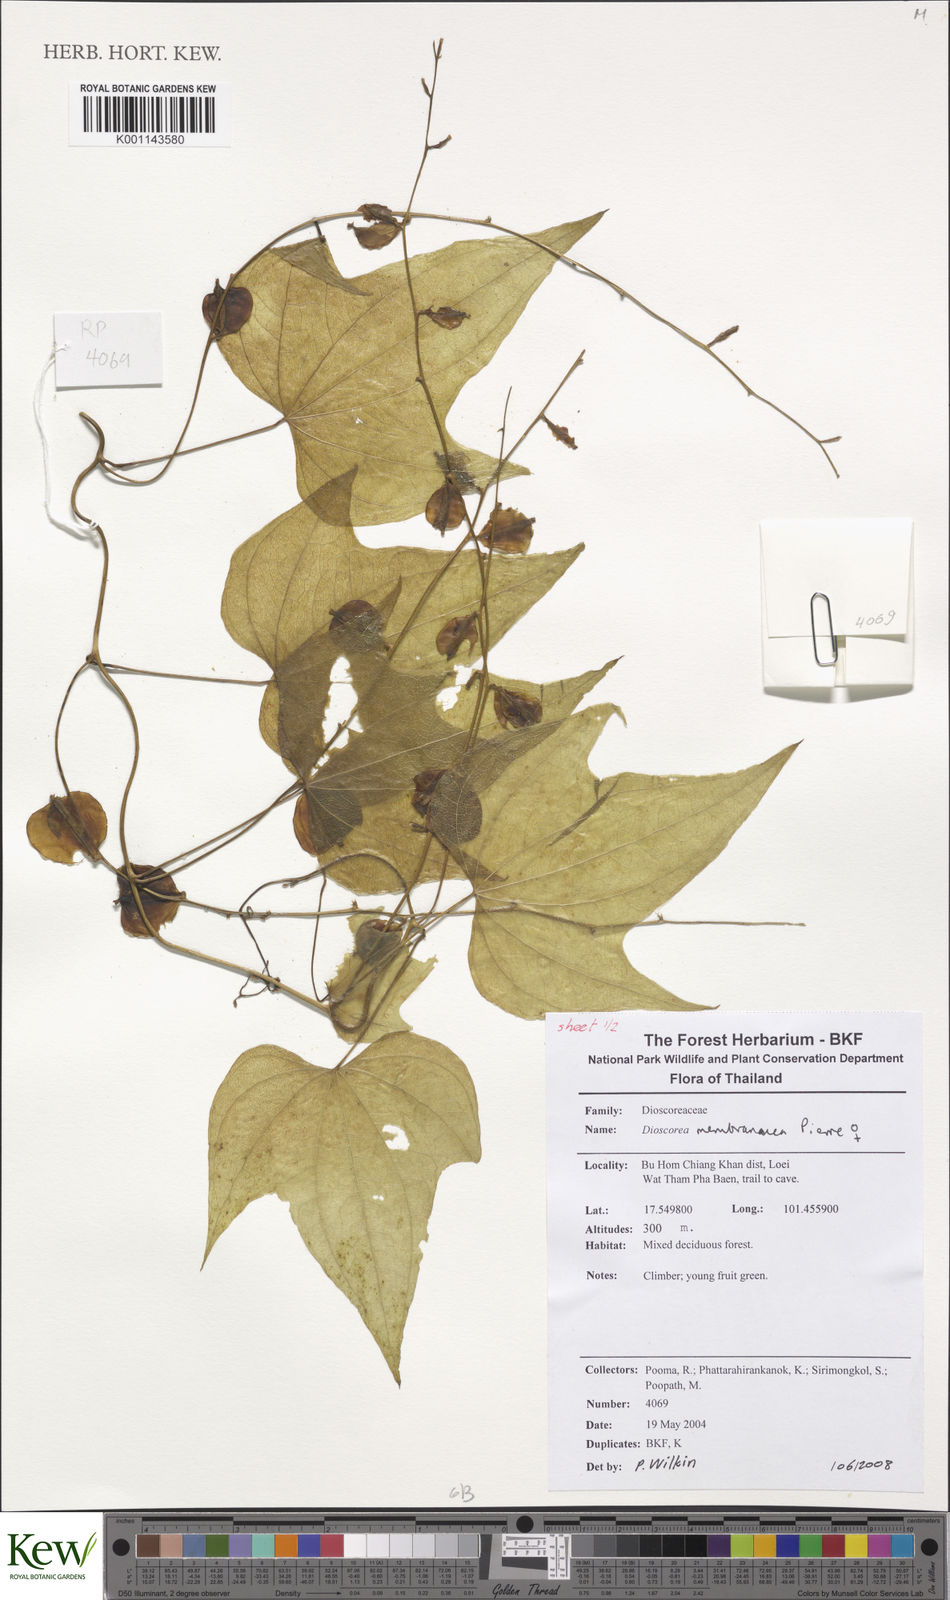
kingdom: Plantae
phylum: Tracheophyta
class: Liliopsida
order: Dioscoreales
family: Dioscoreaceae
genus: Dioscorea
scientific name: Dioscorea membranacea
